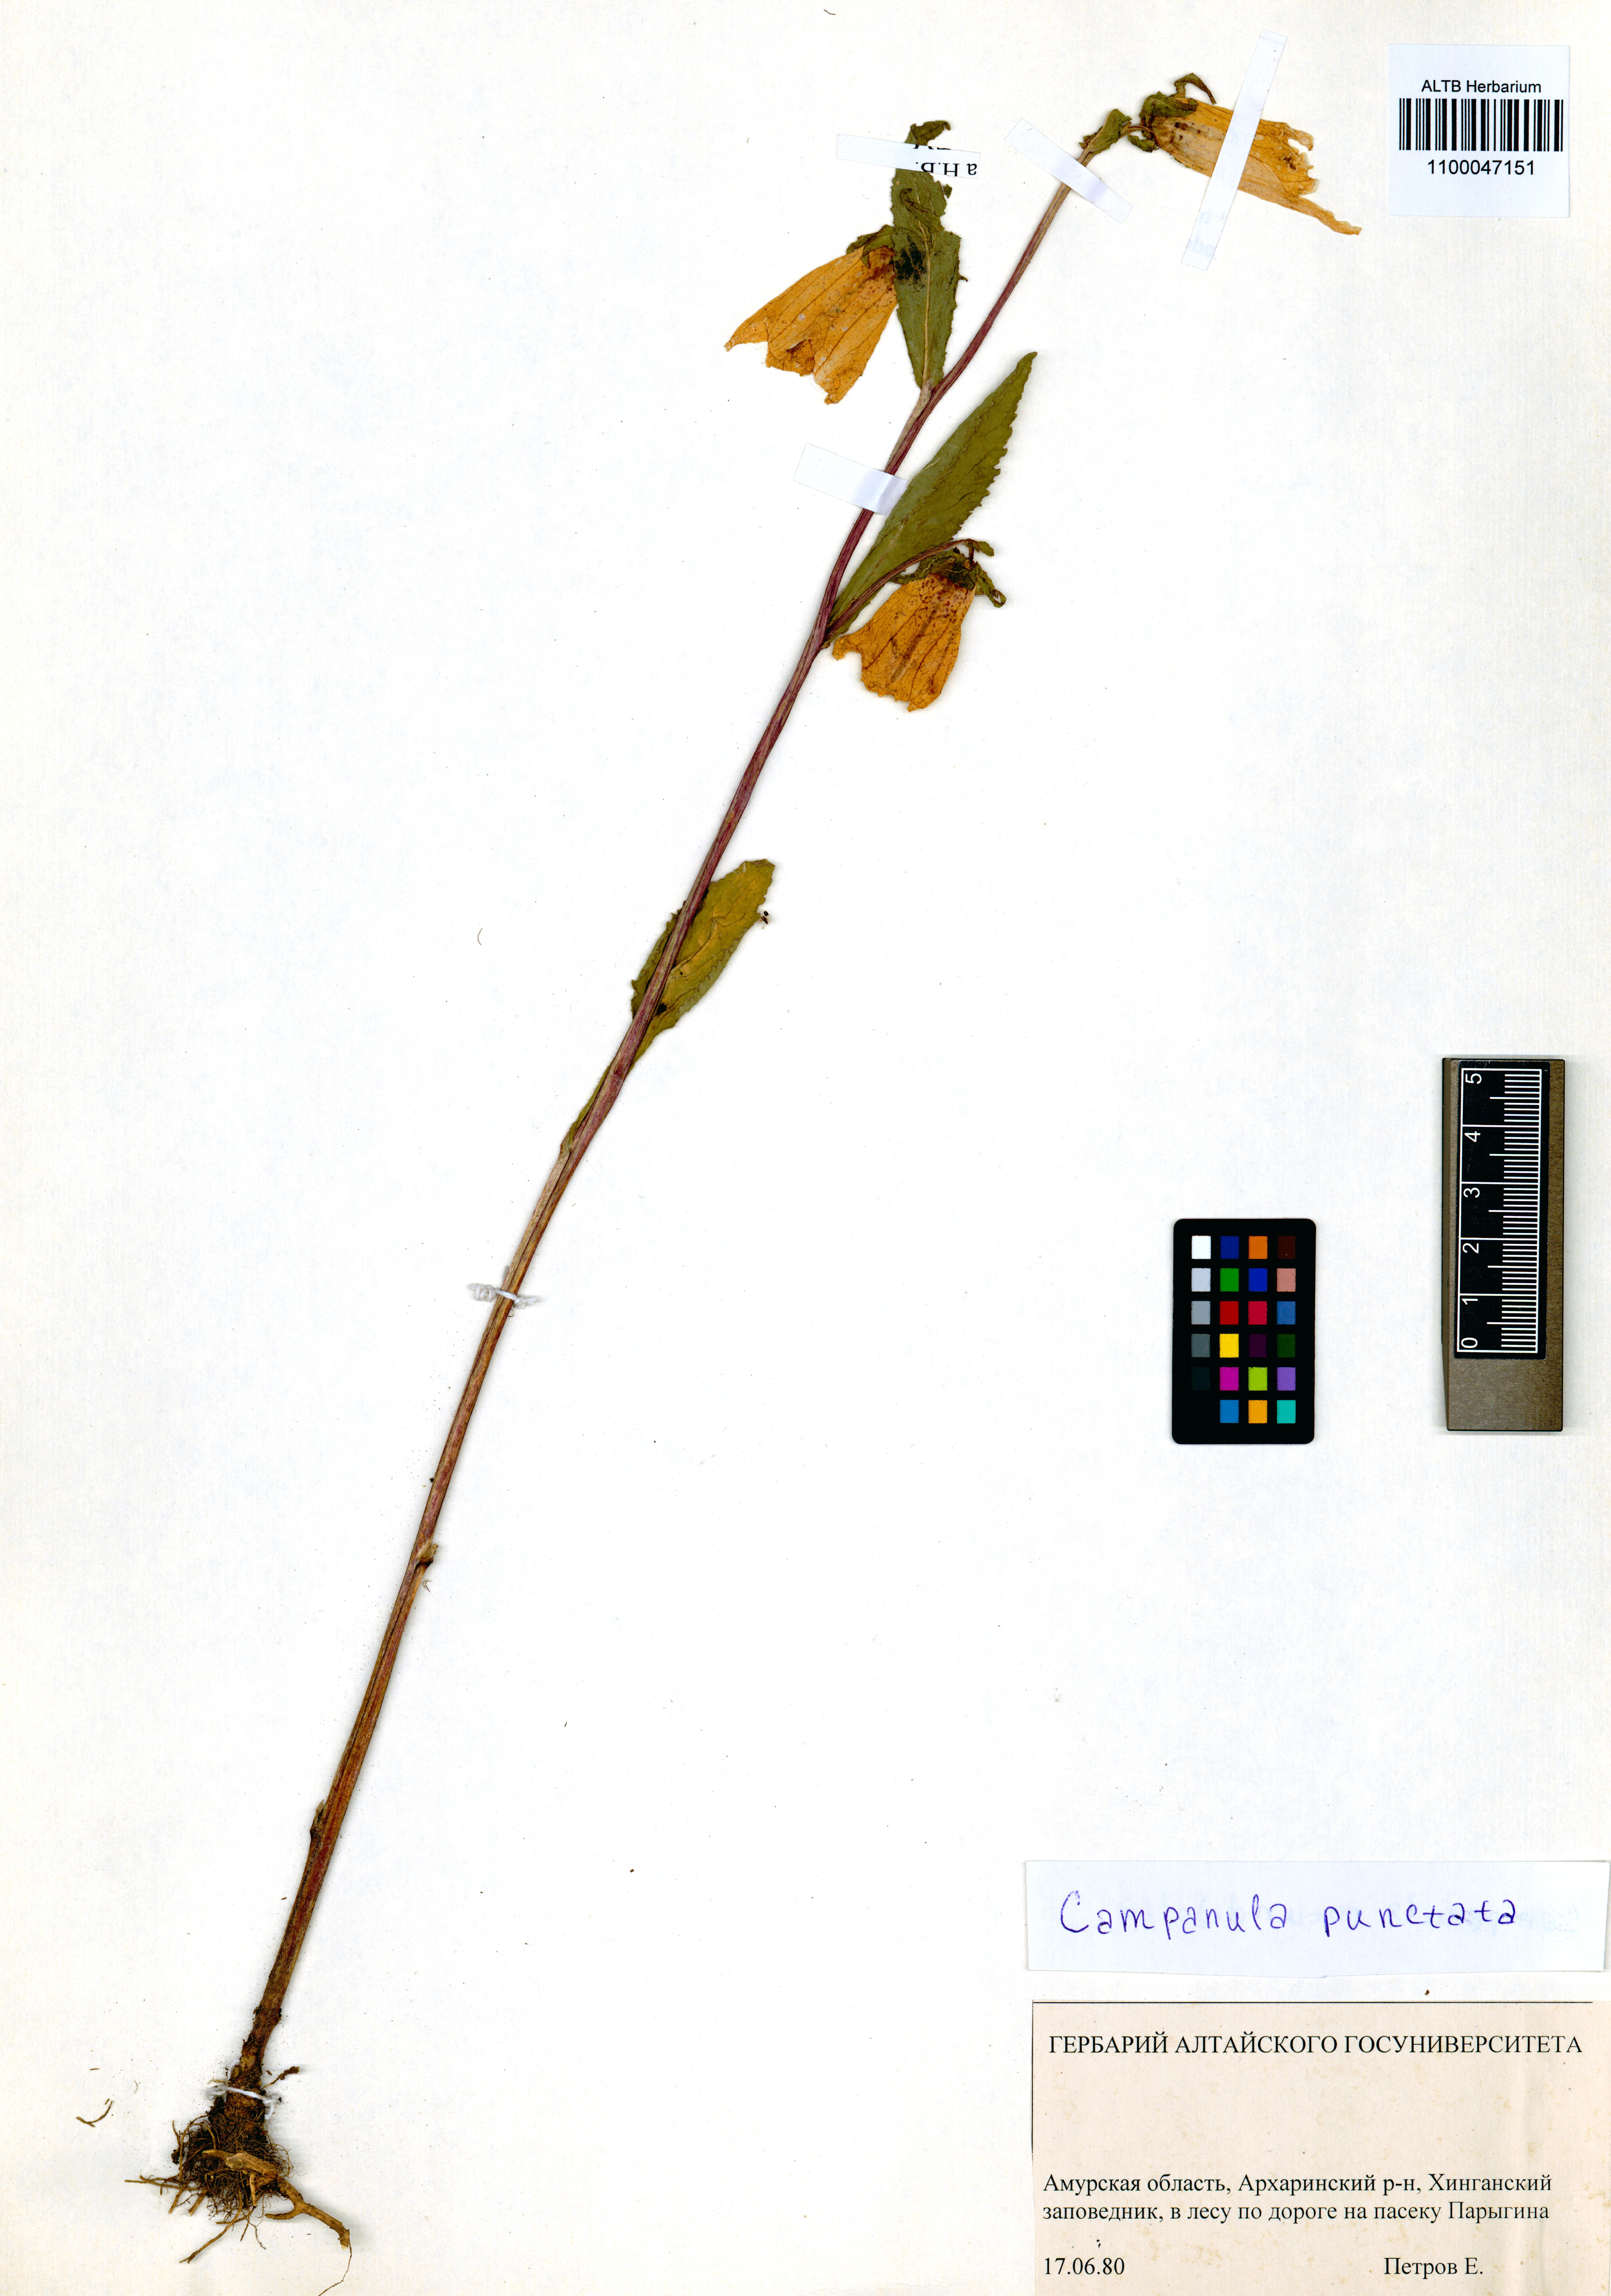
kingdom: Plantae
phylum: Tracheophyta
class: Magnoliopsida
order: Asterales
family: Campanulaceae
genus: Campanula
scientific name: Campanula punctata
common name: Spotted bellflower
